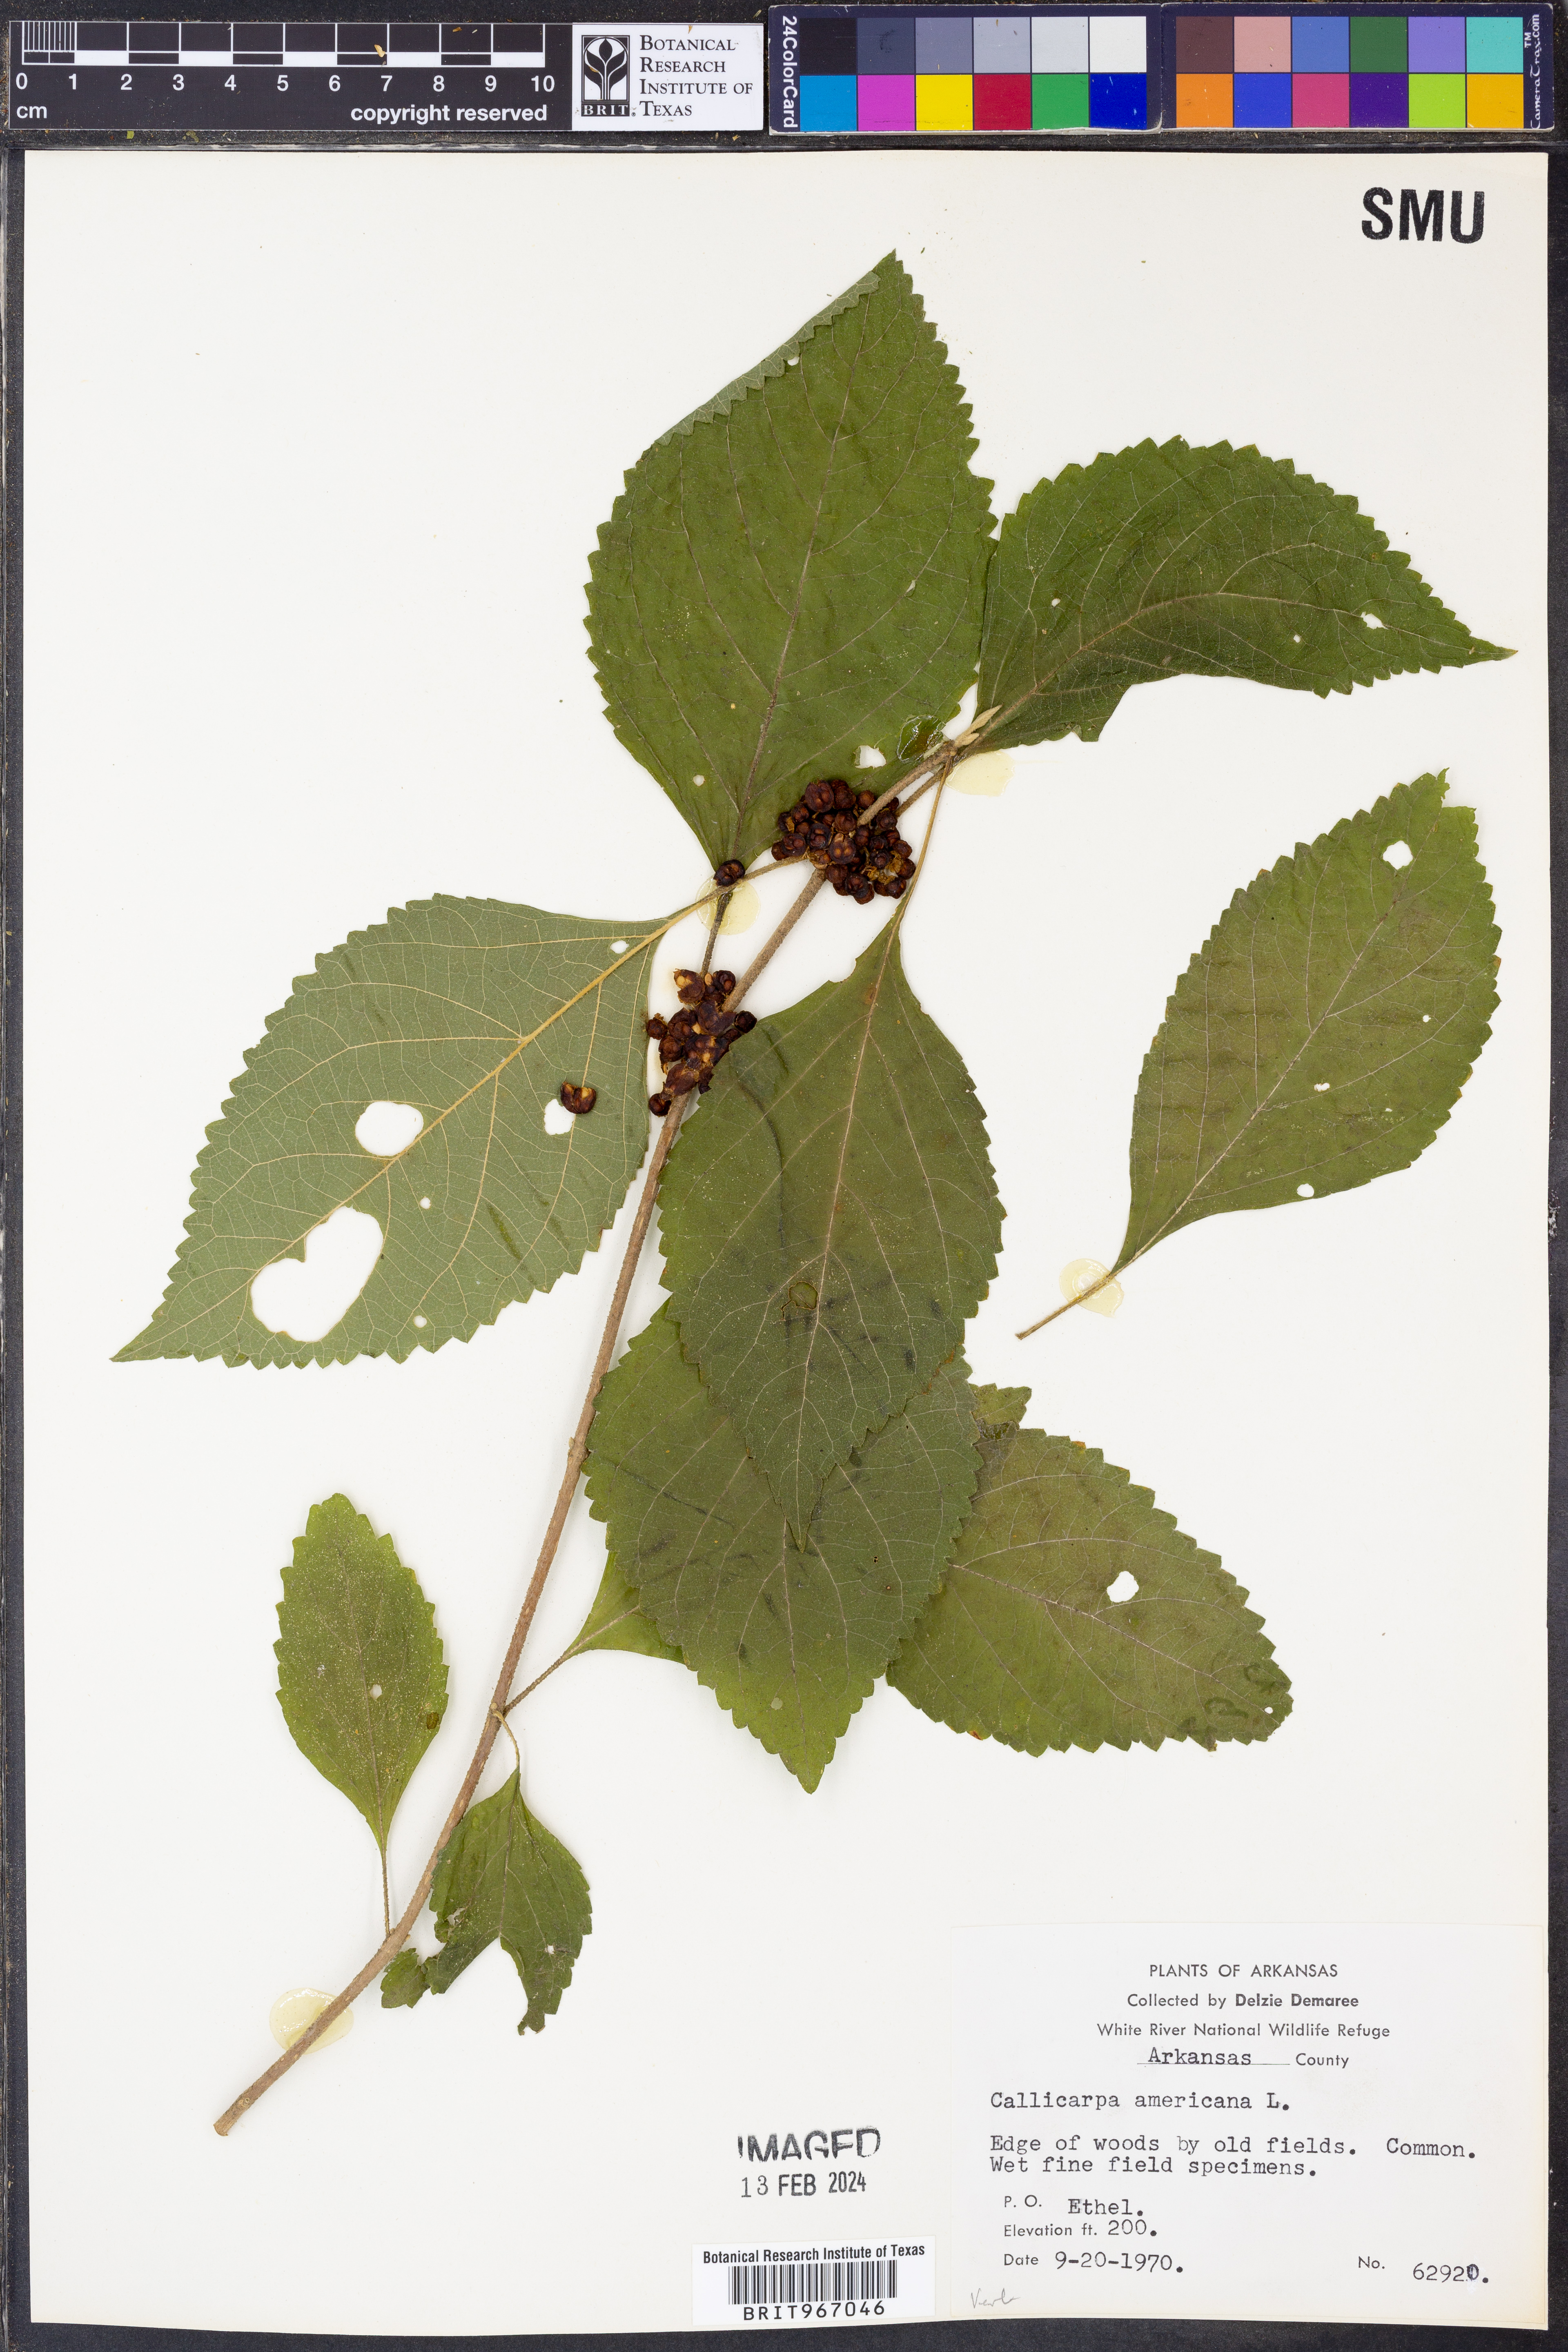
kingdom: Plantae
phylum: Tracheophyta
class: Magnoliopsida
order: Lamiales
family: Lamiaceae
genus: Callicarpa
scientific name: Callicarpa americana
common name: American beautyberry
